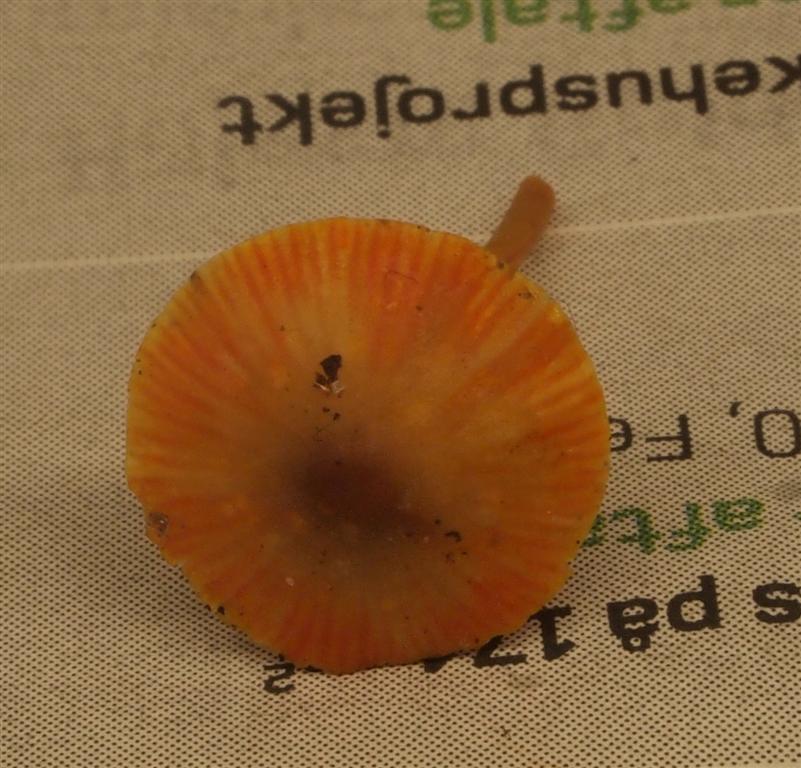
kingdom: Fungi
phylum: Basidiomycota
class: Agaricomycetes
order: Agaricales
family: Mycenaceae
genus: Mycena
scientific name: Mycena crocata
